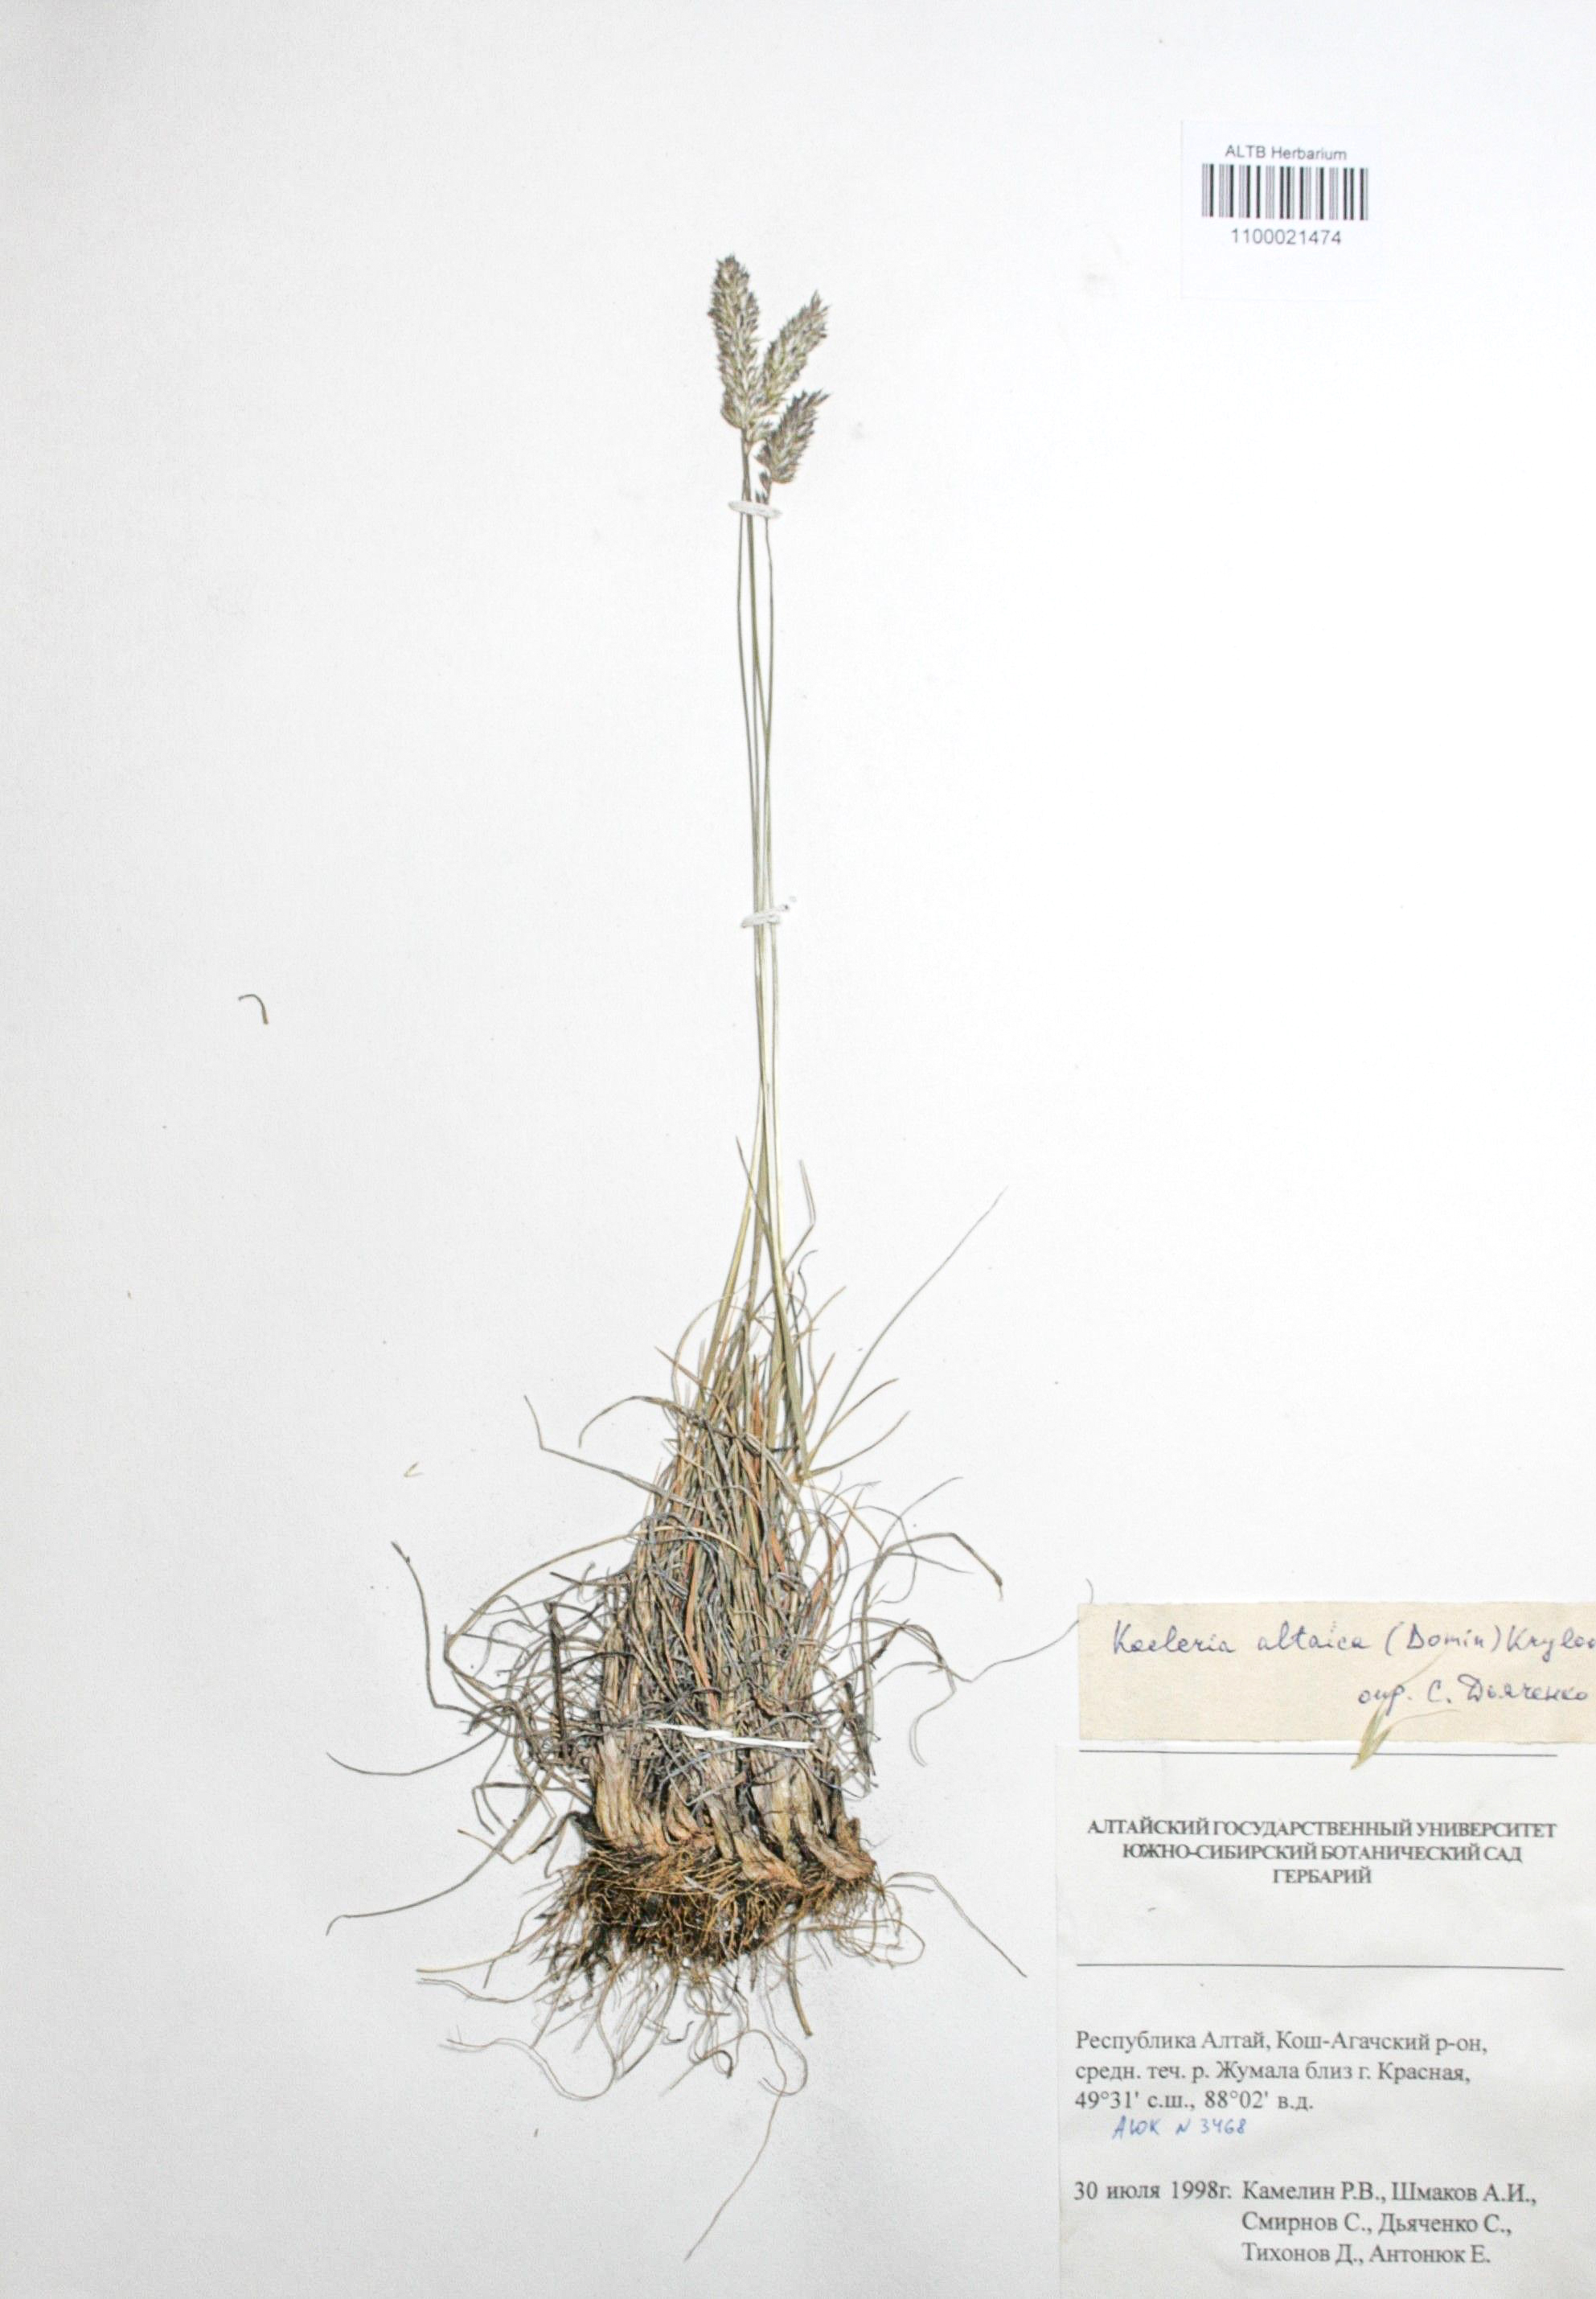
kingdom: Plantae
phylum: Tracheophyta
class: Liliopsida
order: Poales
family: Poaceae
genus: Koeleria
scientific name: Koeleria altaica
